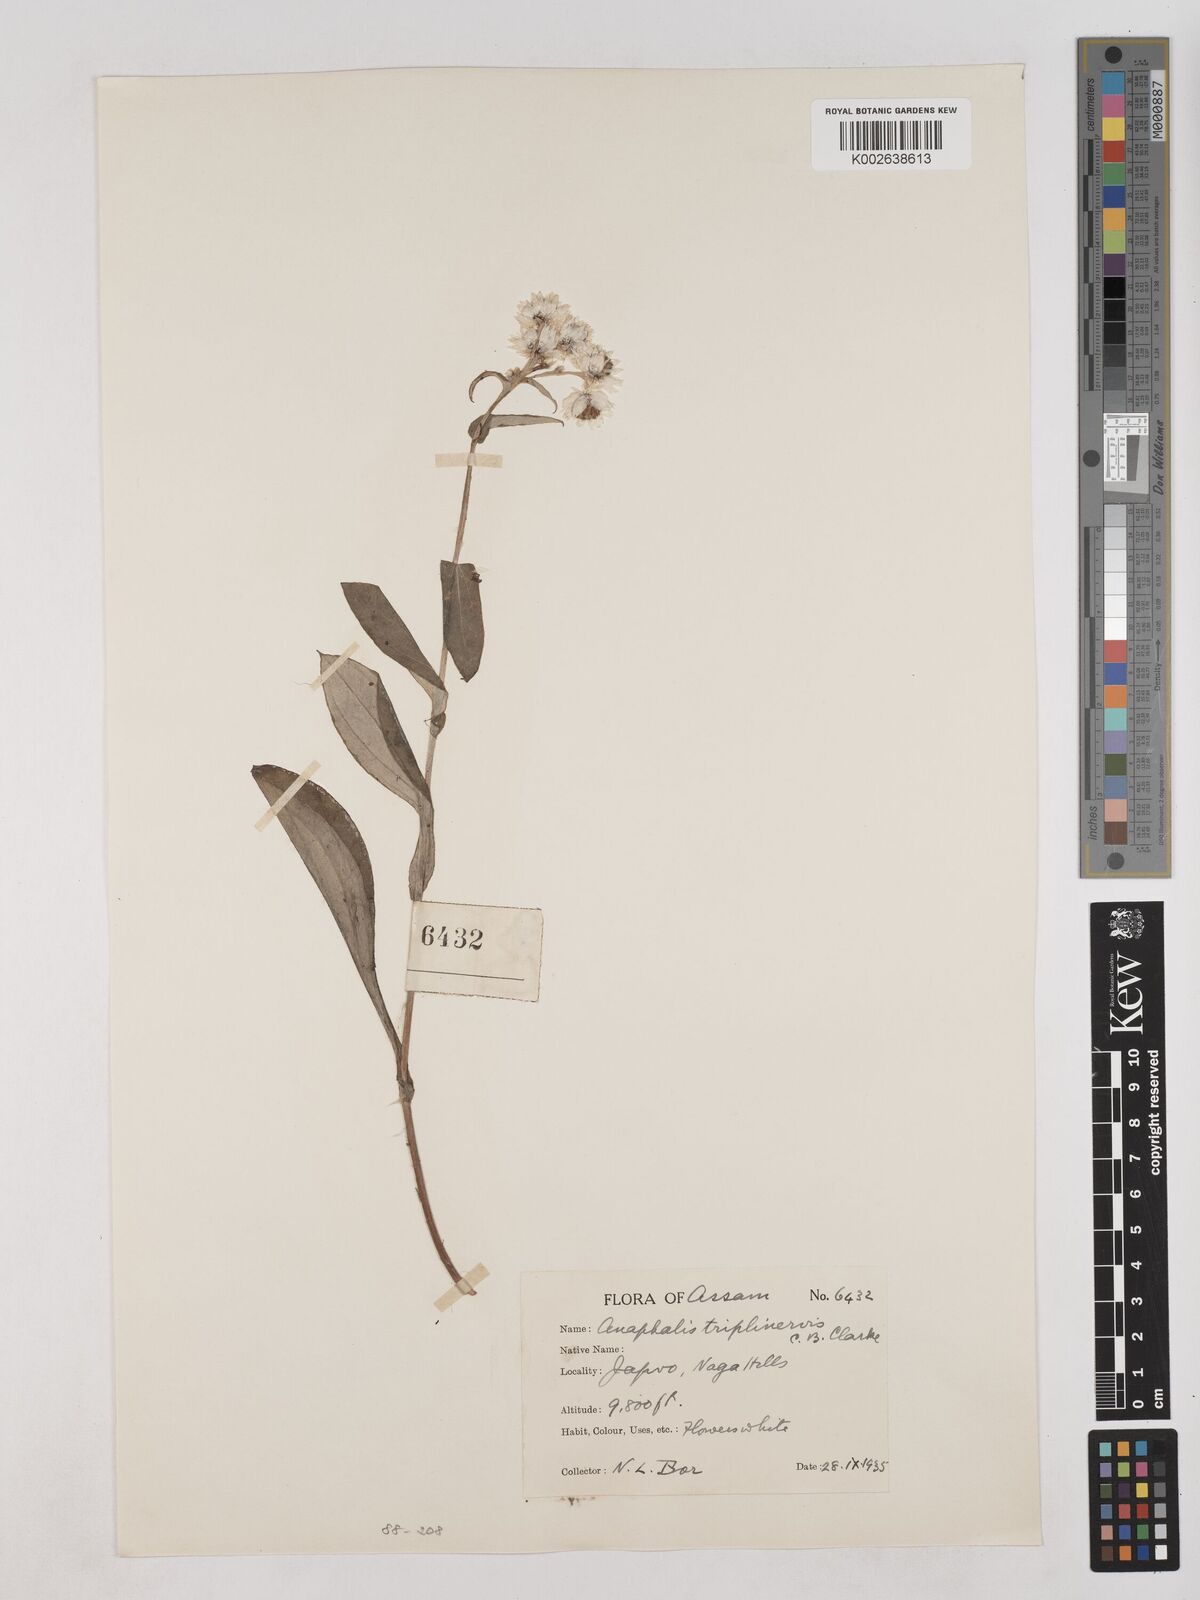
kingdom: Plantae
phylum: Tracheophyta
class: Magnoliopsida
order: Asterales
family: Asteraceae
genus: Anaphalis
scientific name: Anaphalis nepalensis
